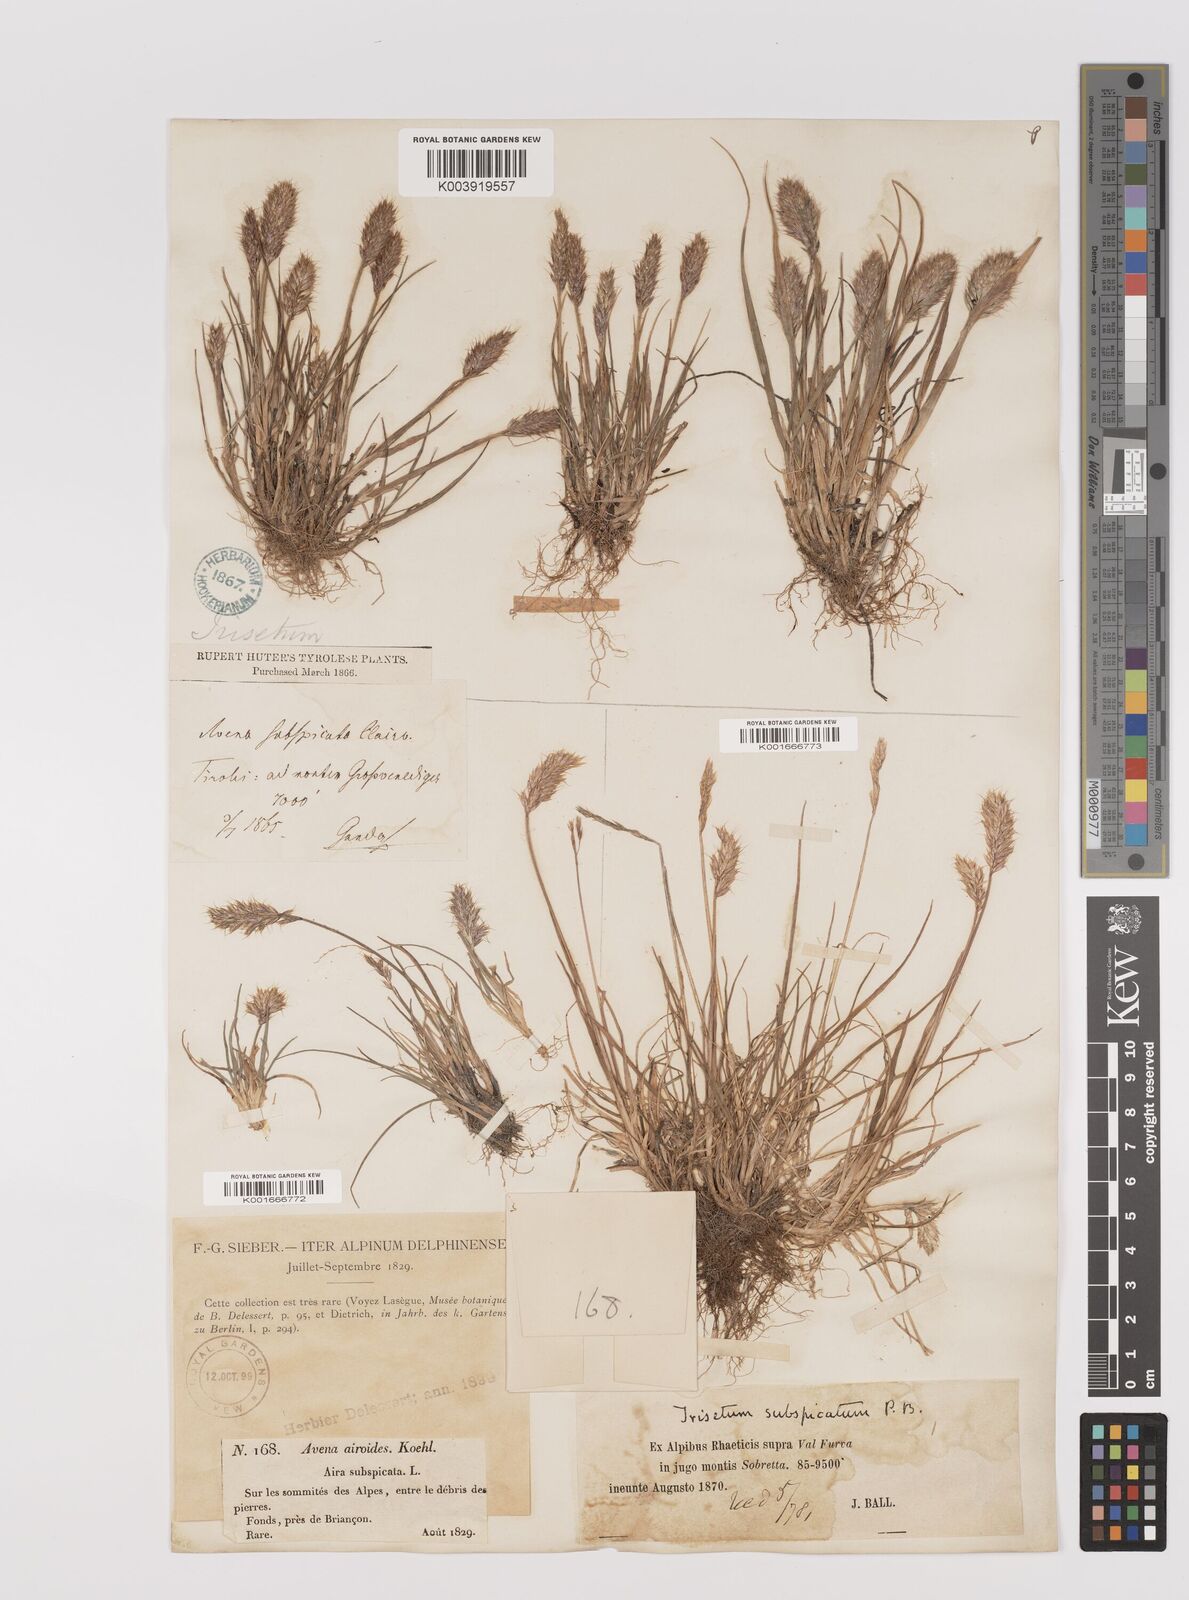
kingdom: Plantae
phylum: Tracheophyta
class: Liliopsida
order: Poales
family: Poaceae
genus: Koeleria
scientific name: Koeleria spicata
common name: Mountain trisetum
